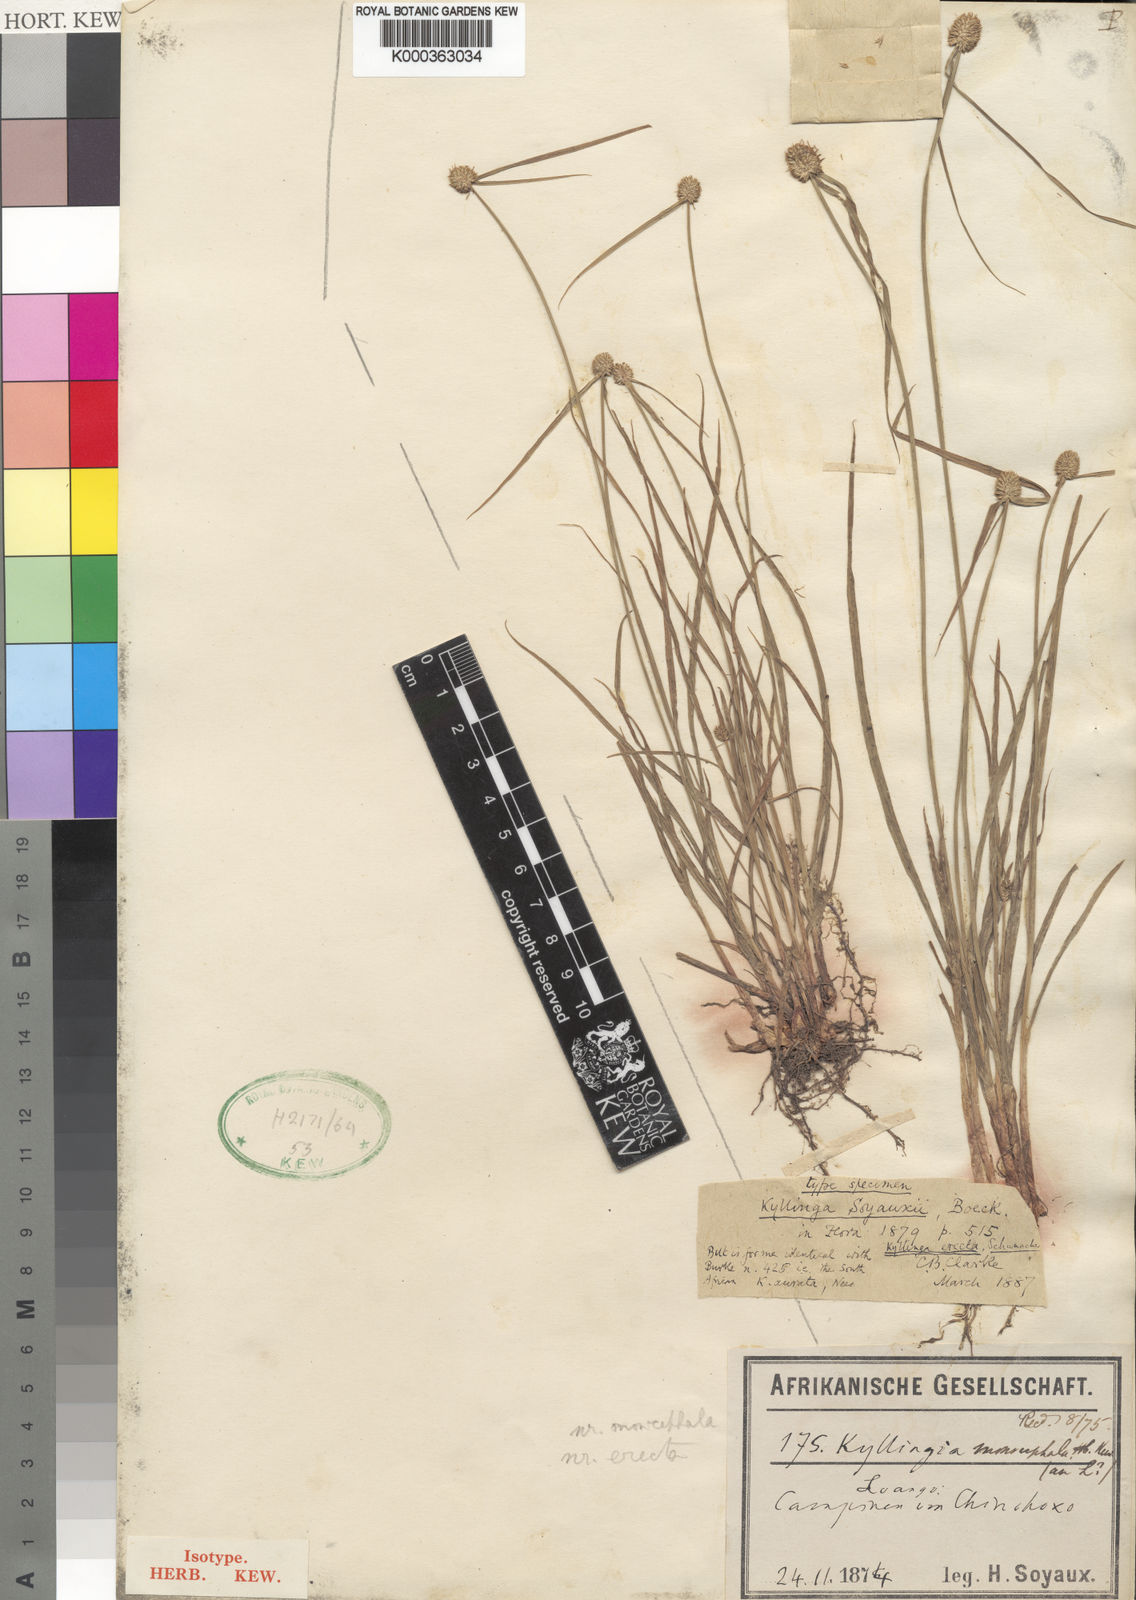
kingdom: Plantae
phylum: Tracheophyta
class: Liliopsida
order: Poales
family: Cyperaceae
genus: Cyperus
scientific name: Cyperus erectus
